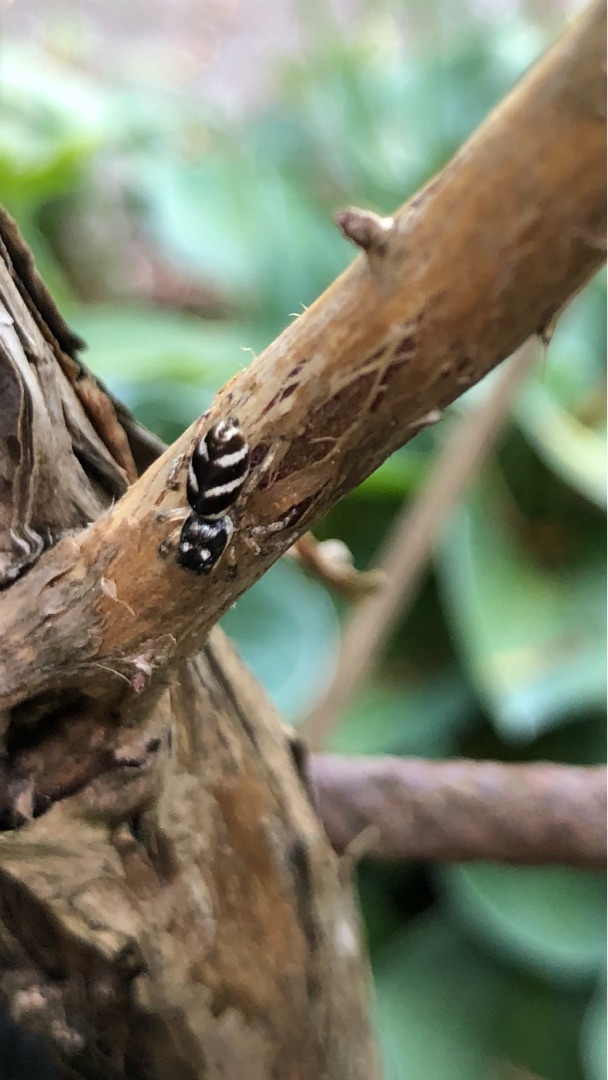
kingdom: Animalia
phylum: Arthropoda
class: Arachnida
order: Araneae
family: Salticidae
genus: Salticus
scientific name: Salticus scenicus
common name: Almindelig zebraedderkop
